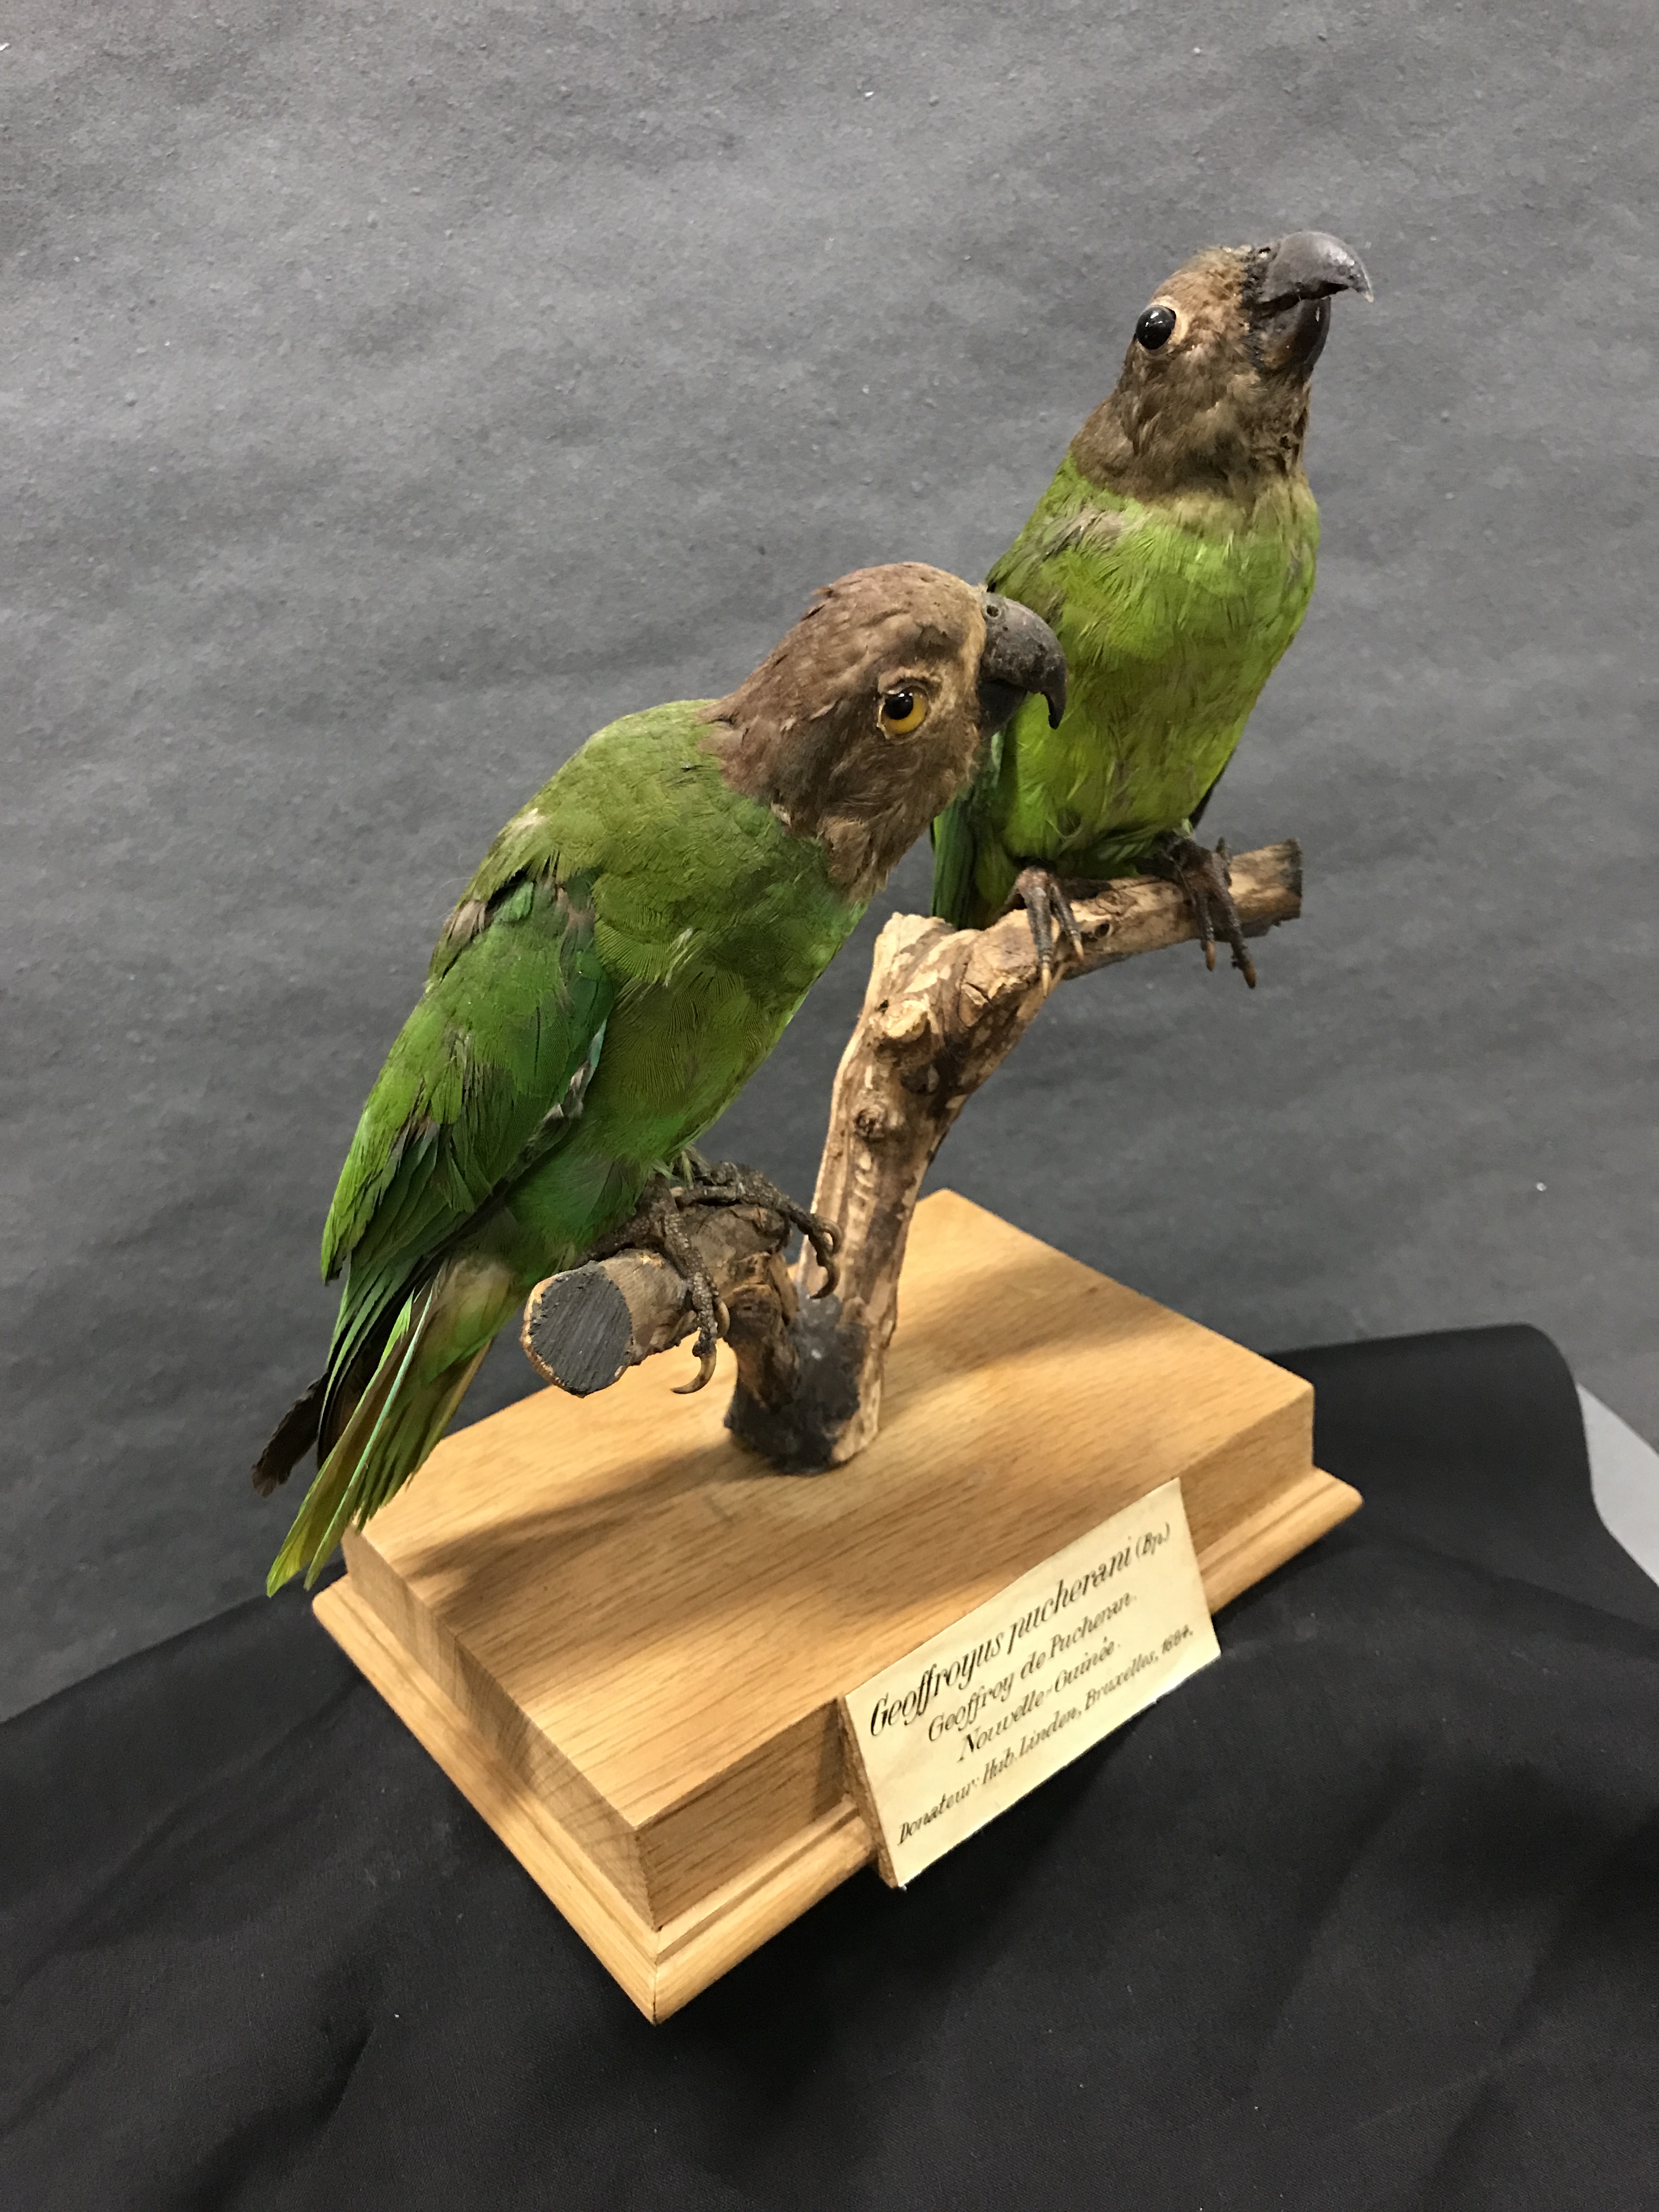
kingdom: Animalia
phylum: Chordata
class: Aves
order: Psittaciformes
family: Psittacidae
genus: Geoffroyus
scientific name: Geoffroyus geoffroyi
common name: Red-cheeked parrot
